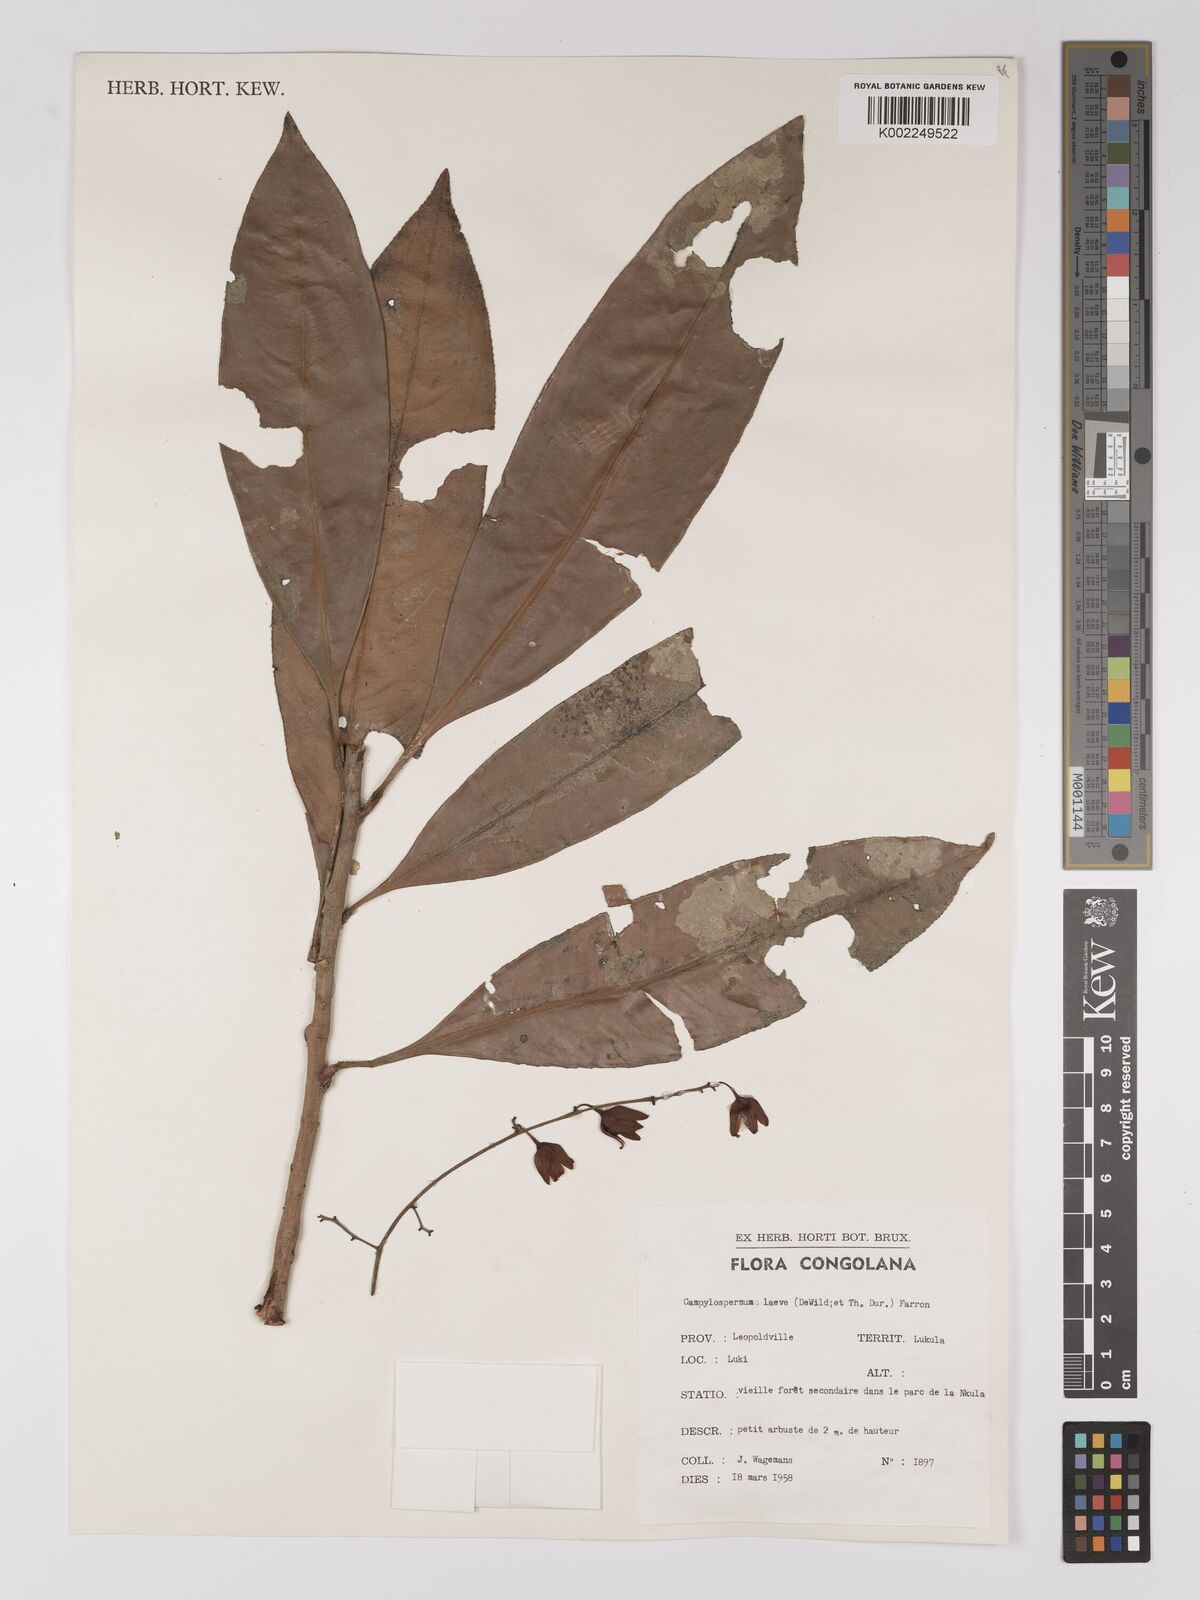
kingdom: Plantae
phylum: Tracheophyta
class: Magnoliopsida
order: Malpighiales
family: Ochnaceae
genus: Campylospermum
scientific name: Campylospermum laeve
